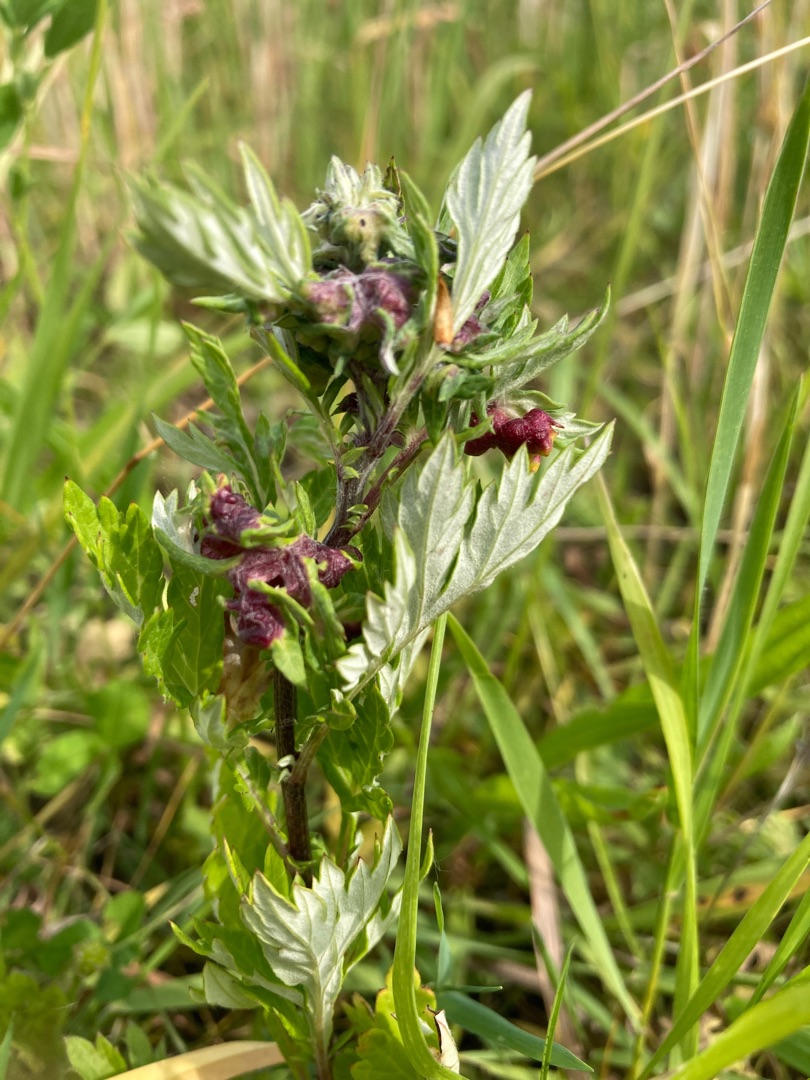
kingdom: Animalia
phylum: Arthropoda
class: Insecta
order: Hemiptera
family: Aphididae
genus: Cryptosiphum
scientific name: Cryptosiphum artemisiae
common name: Bynkegallelus
